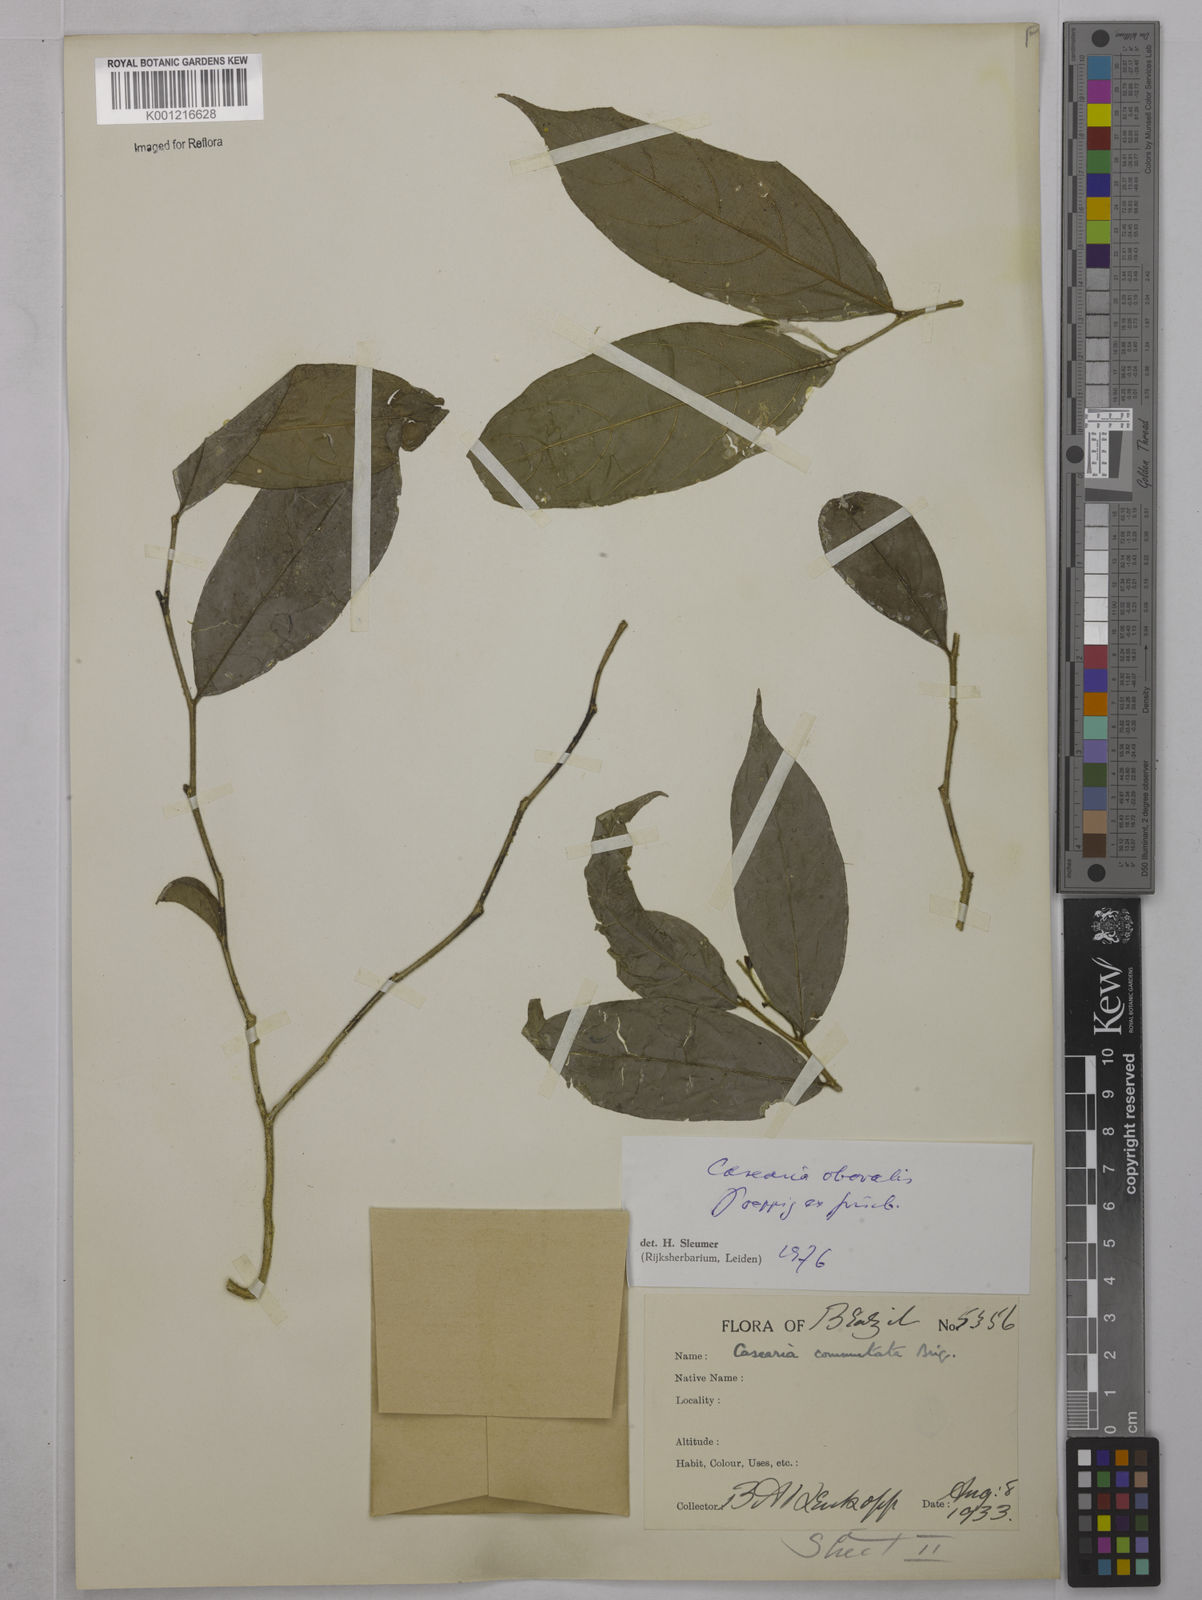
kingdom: Plantae
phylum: Tracheophyta
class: Magnoliopsida
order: Malpighiales
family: Salicaceae
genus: Casearia
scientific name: Casearia obovalis
